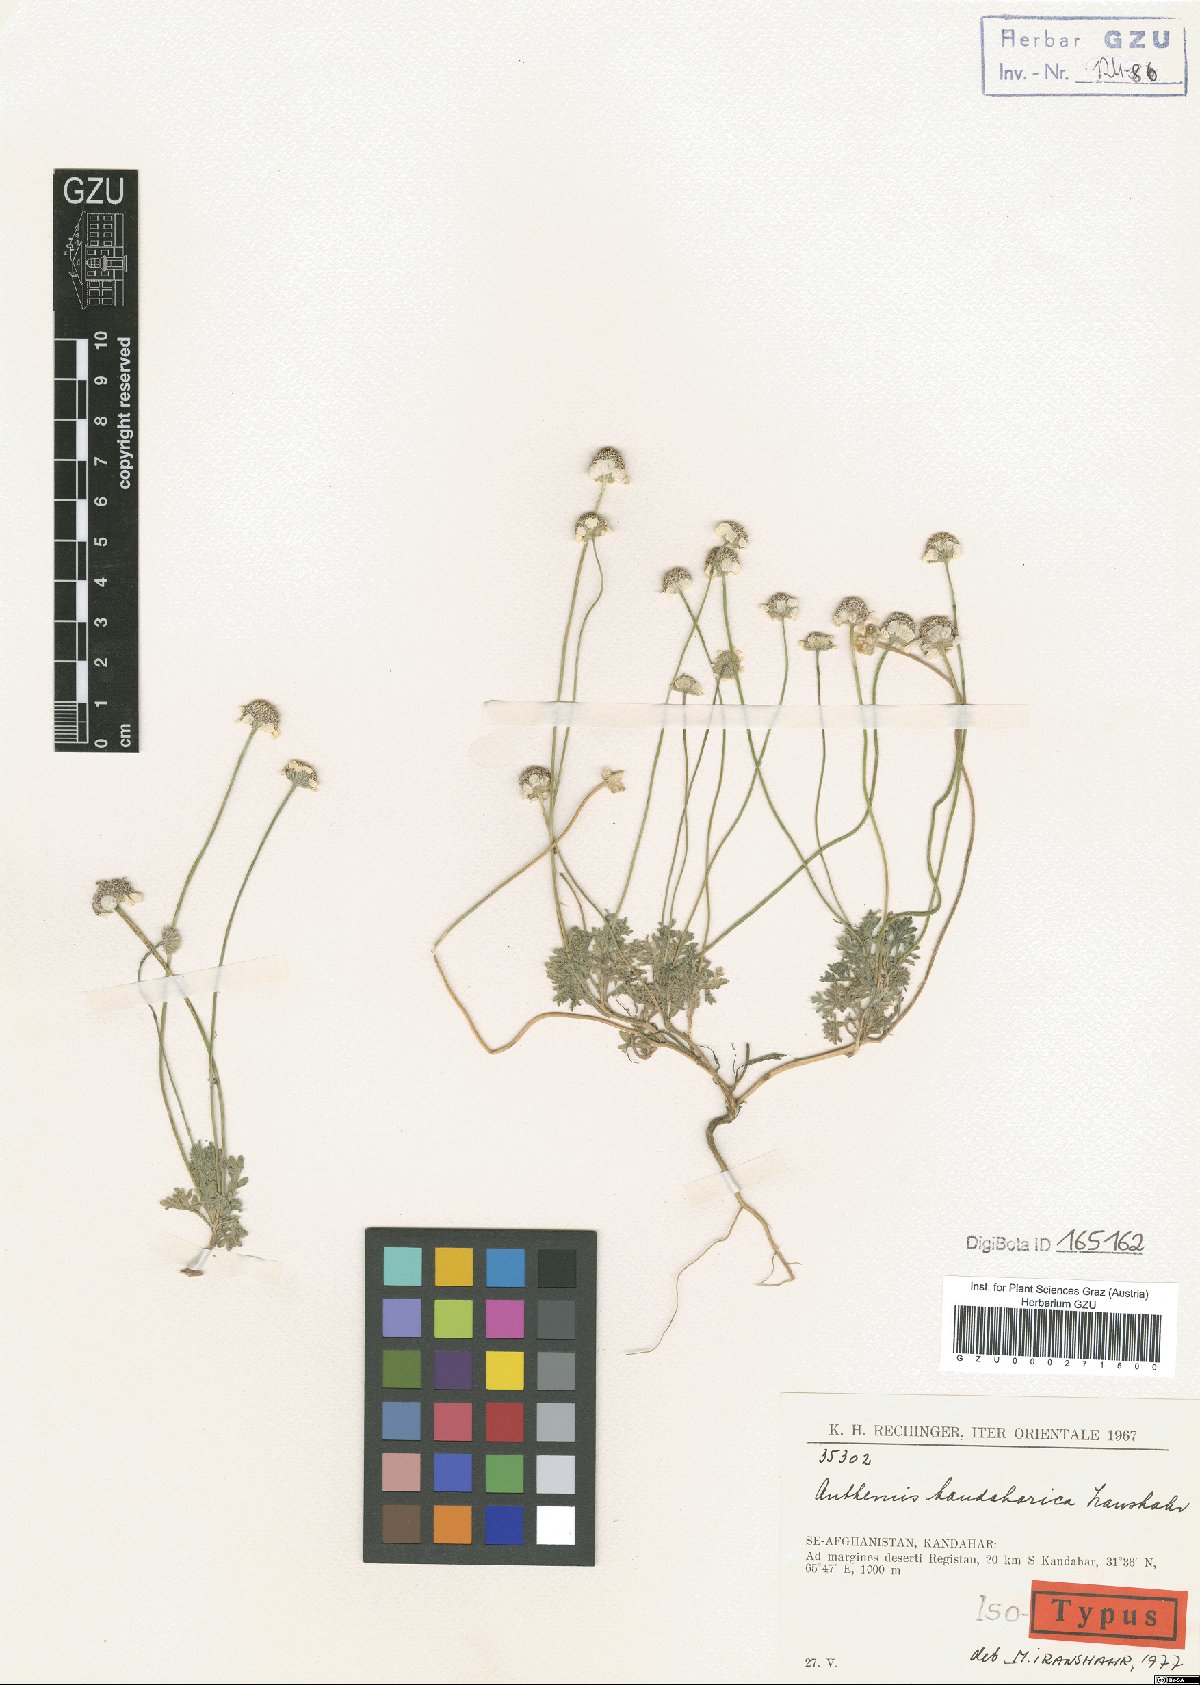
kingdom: Plantae
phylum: Tracheophyta
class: Magnoliopsida
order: Asterales
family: Asteraceae
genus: Anthemis
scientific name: Anthemis kandaharica
